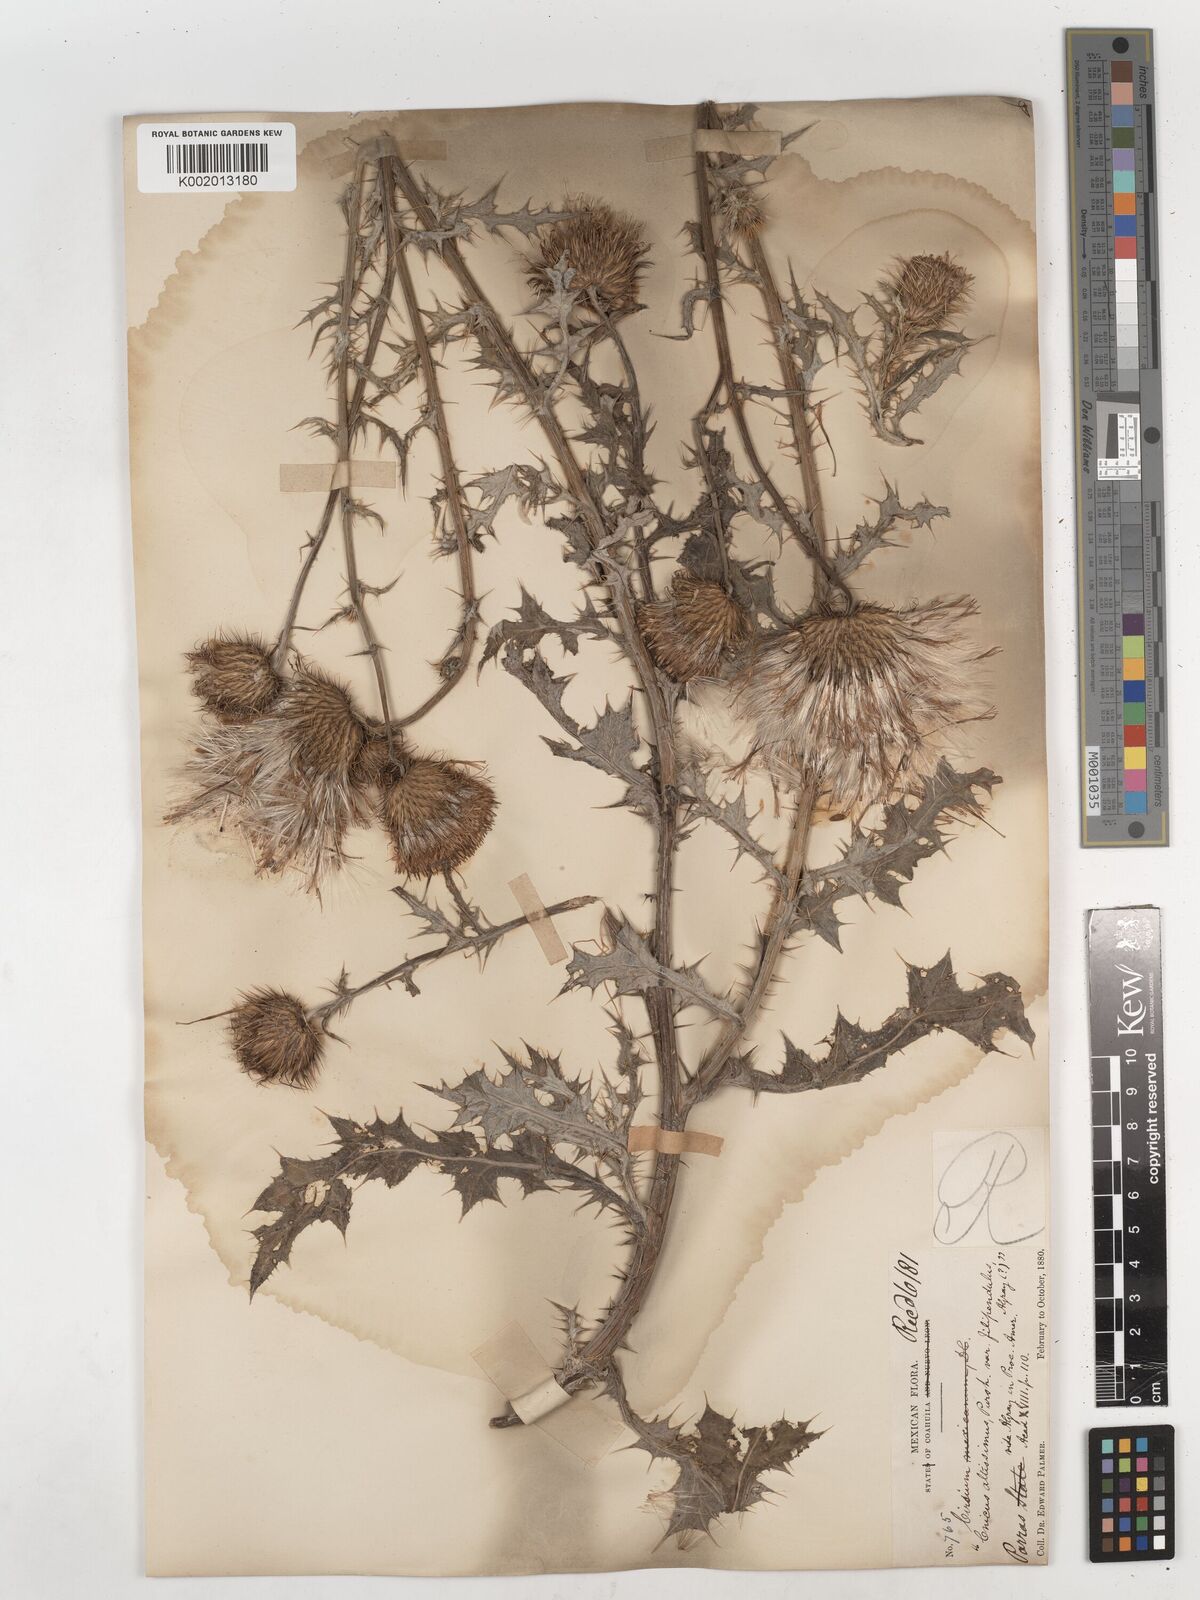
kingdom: Plantae
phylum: Tracheophyta
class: Magnoliopsida
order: Asterales
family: Asteraceae
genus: Cirsium
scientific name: Cirsium
